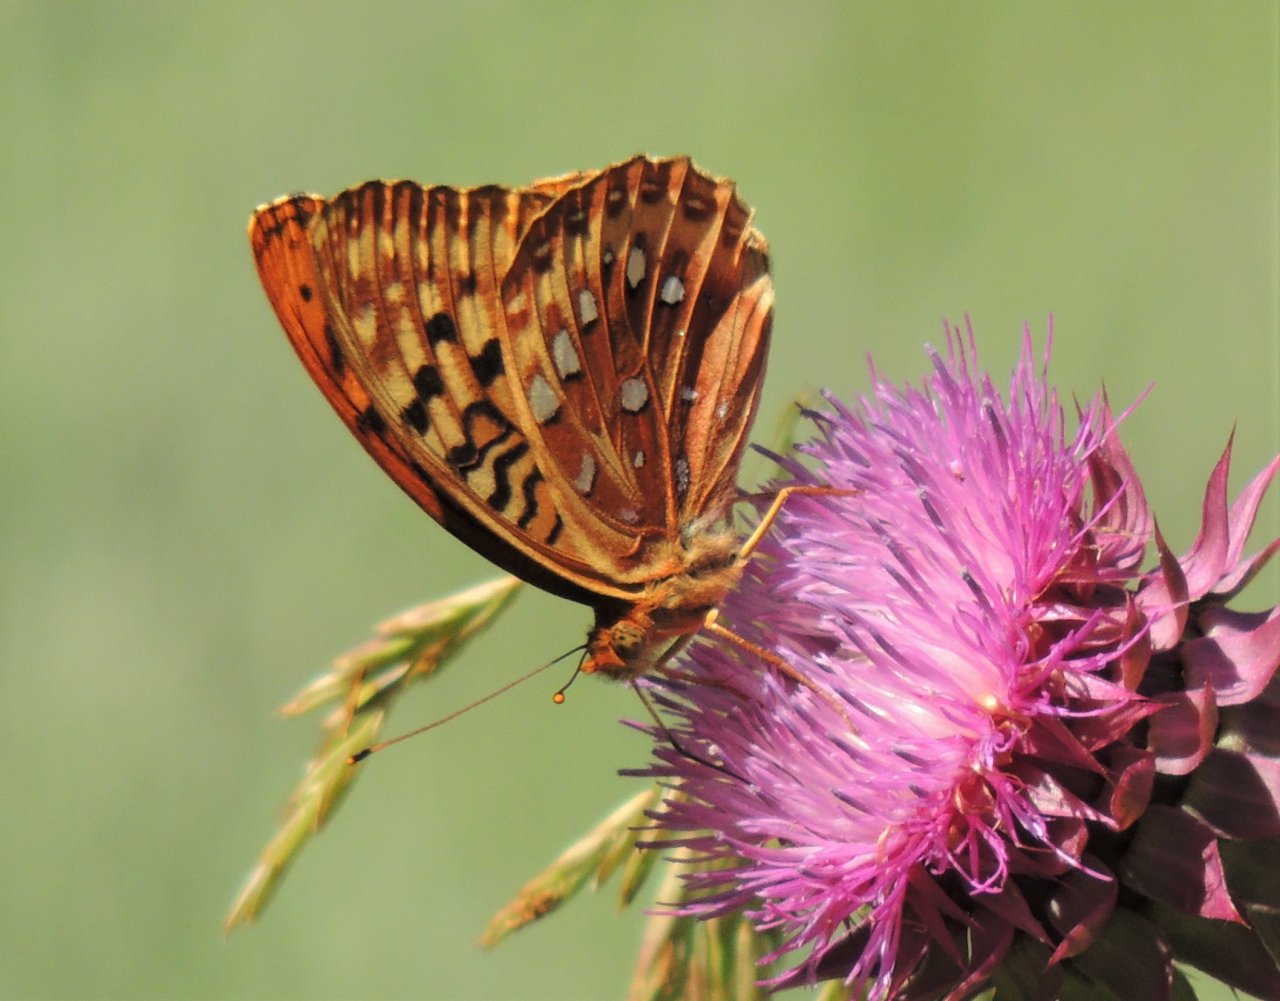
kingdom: Animalia
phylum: Arthropoda
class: Insecta
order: Lepidoptera
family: Nymphalidae
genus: Speyeria
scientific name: Speyeria cybele
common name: Great Spangled Fritillary
